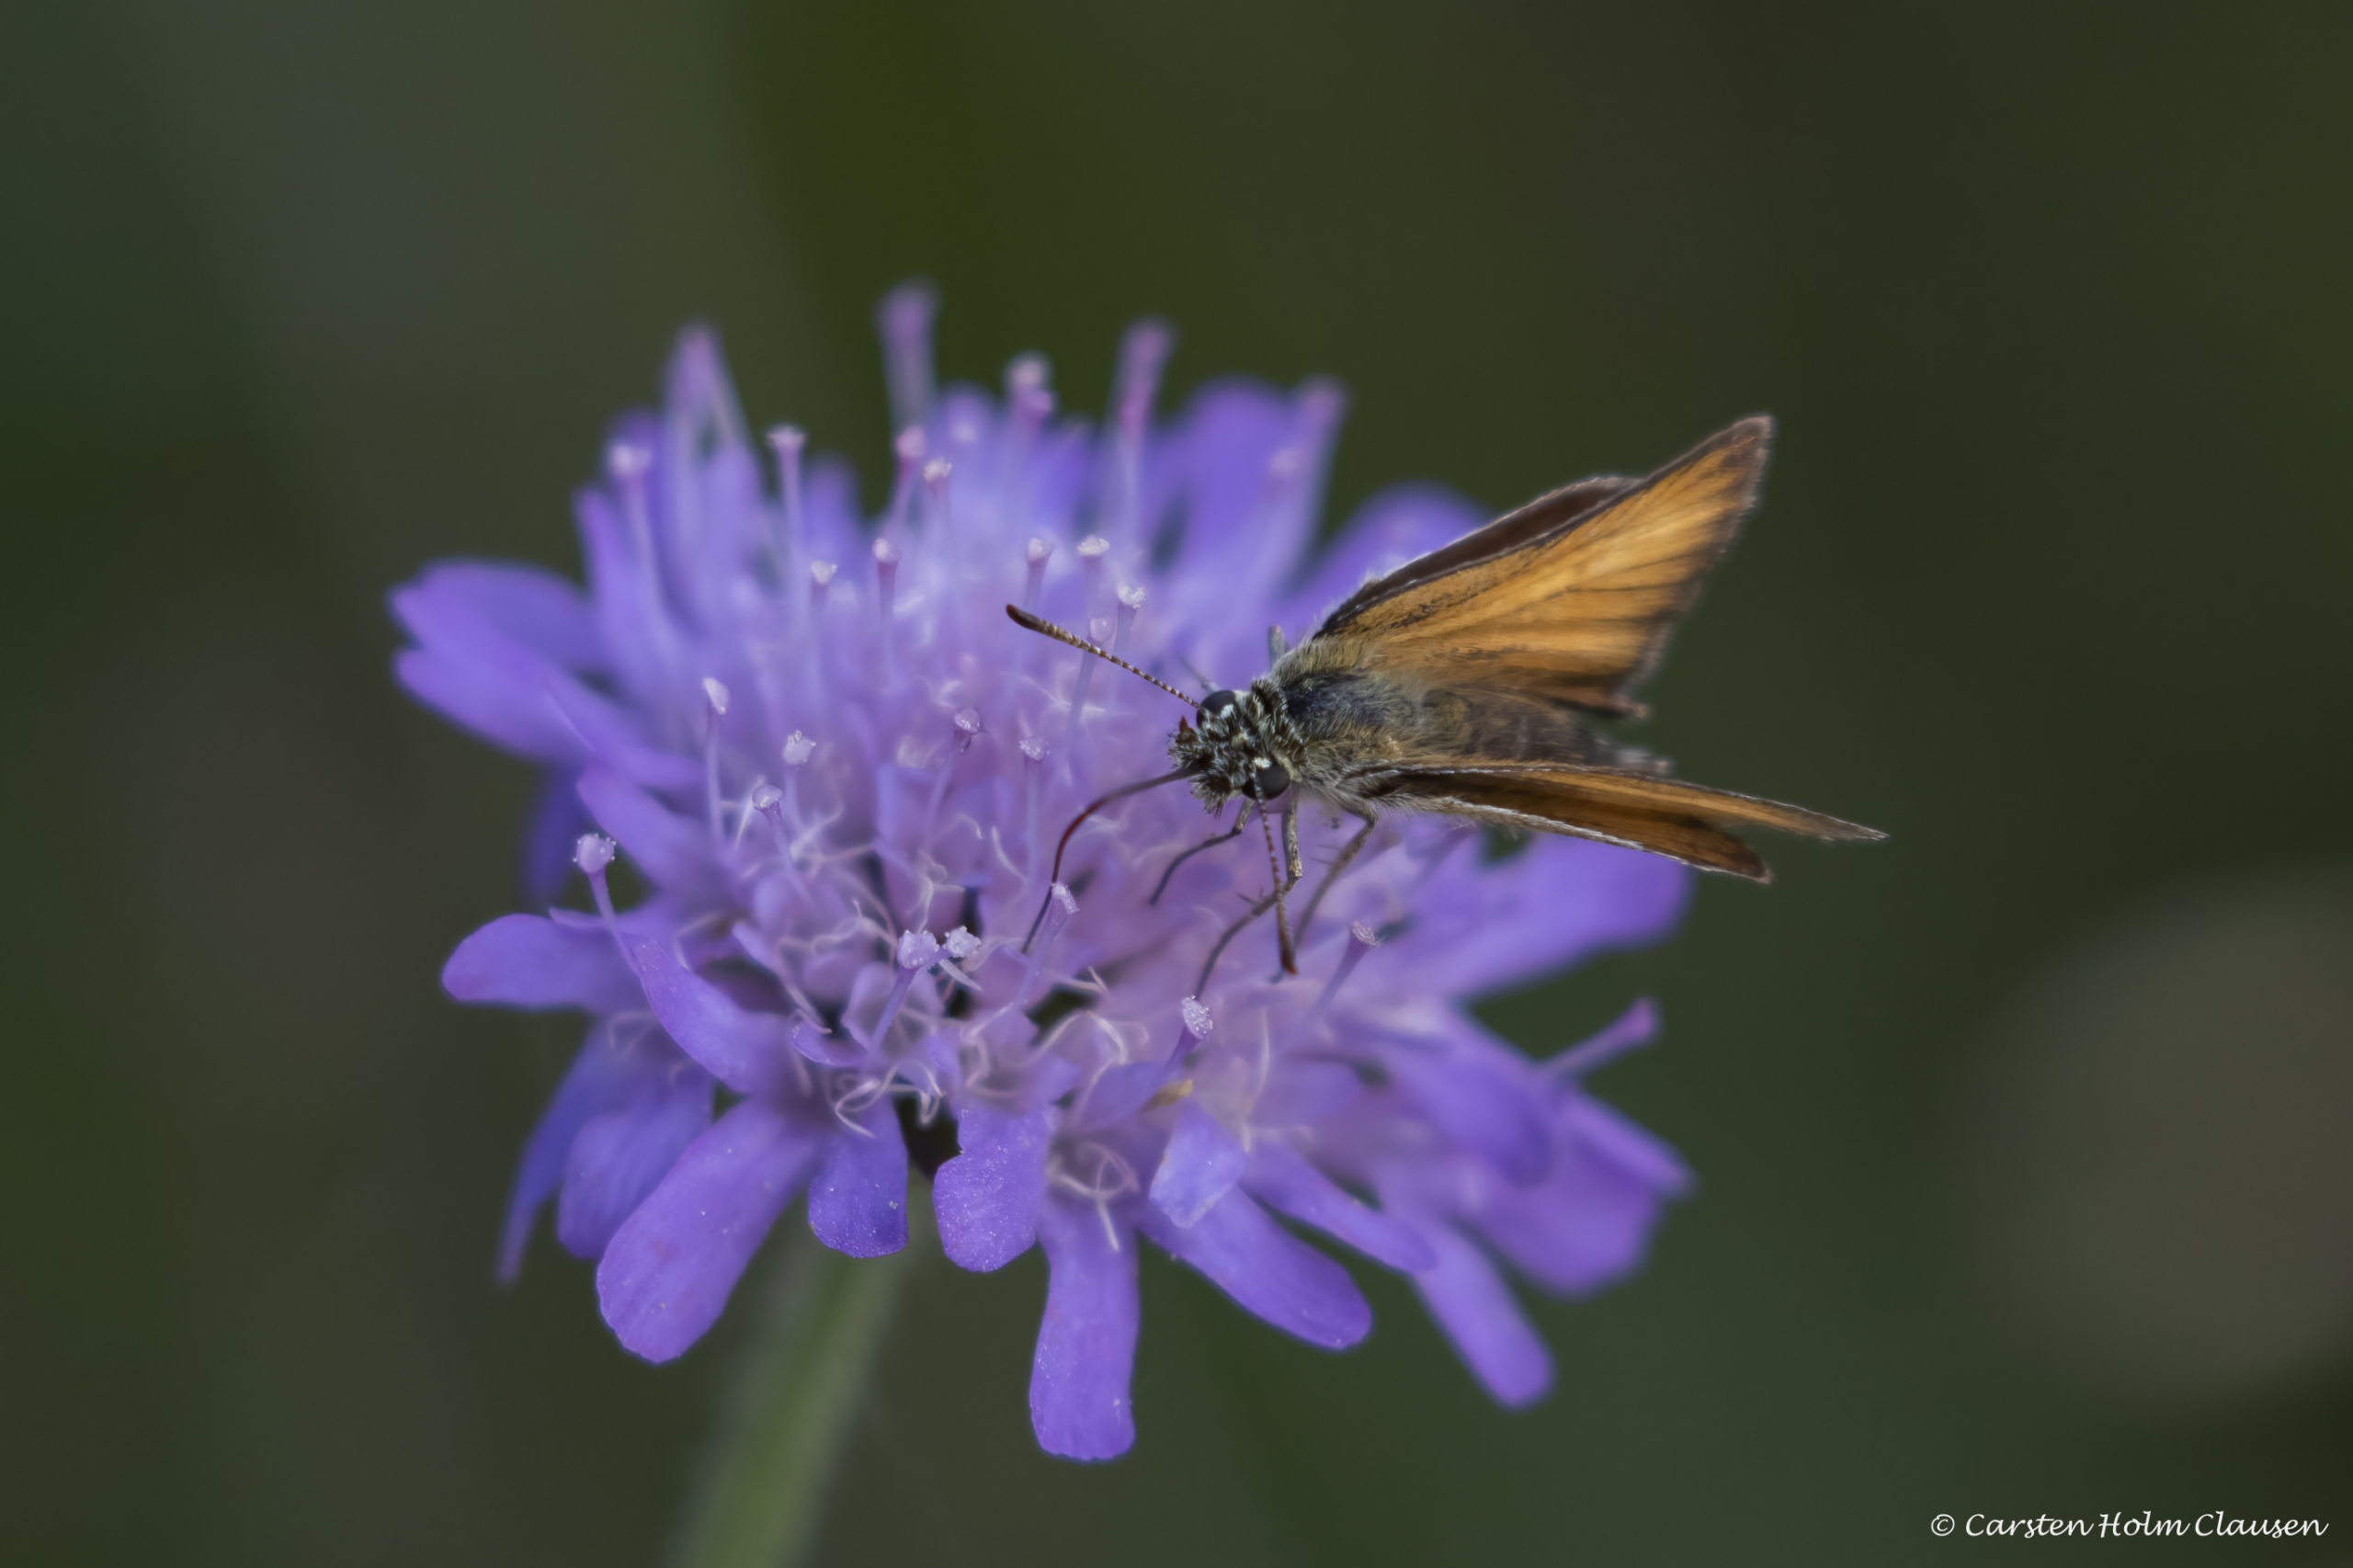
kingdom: Animalia
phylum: Arthropoda
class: Insecta
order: Lepidoptera
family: Hesperiidae
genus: Thymelicus
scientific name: Thymelicus lineola
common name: Stregbredpande
